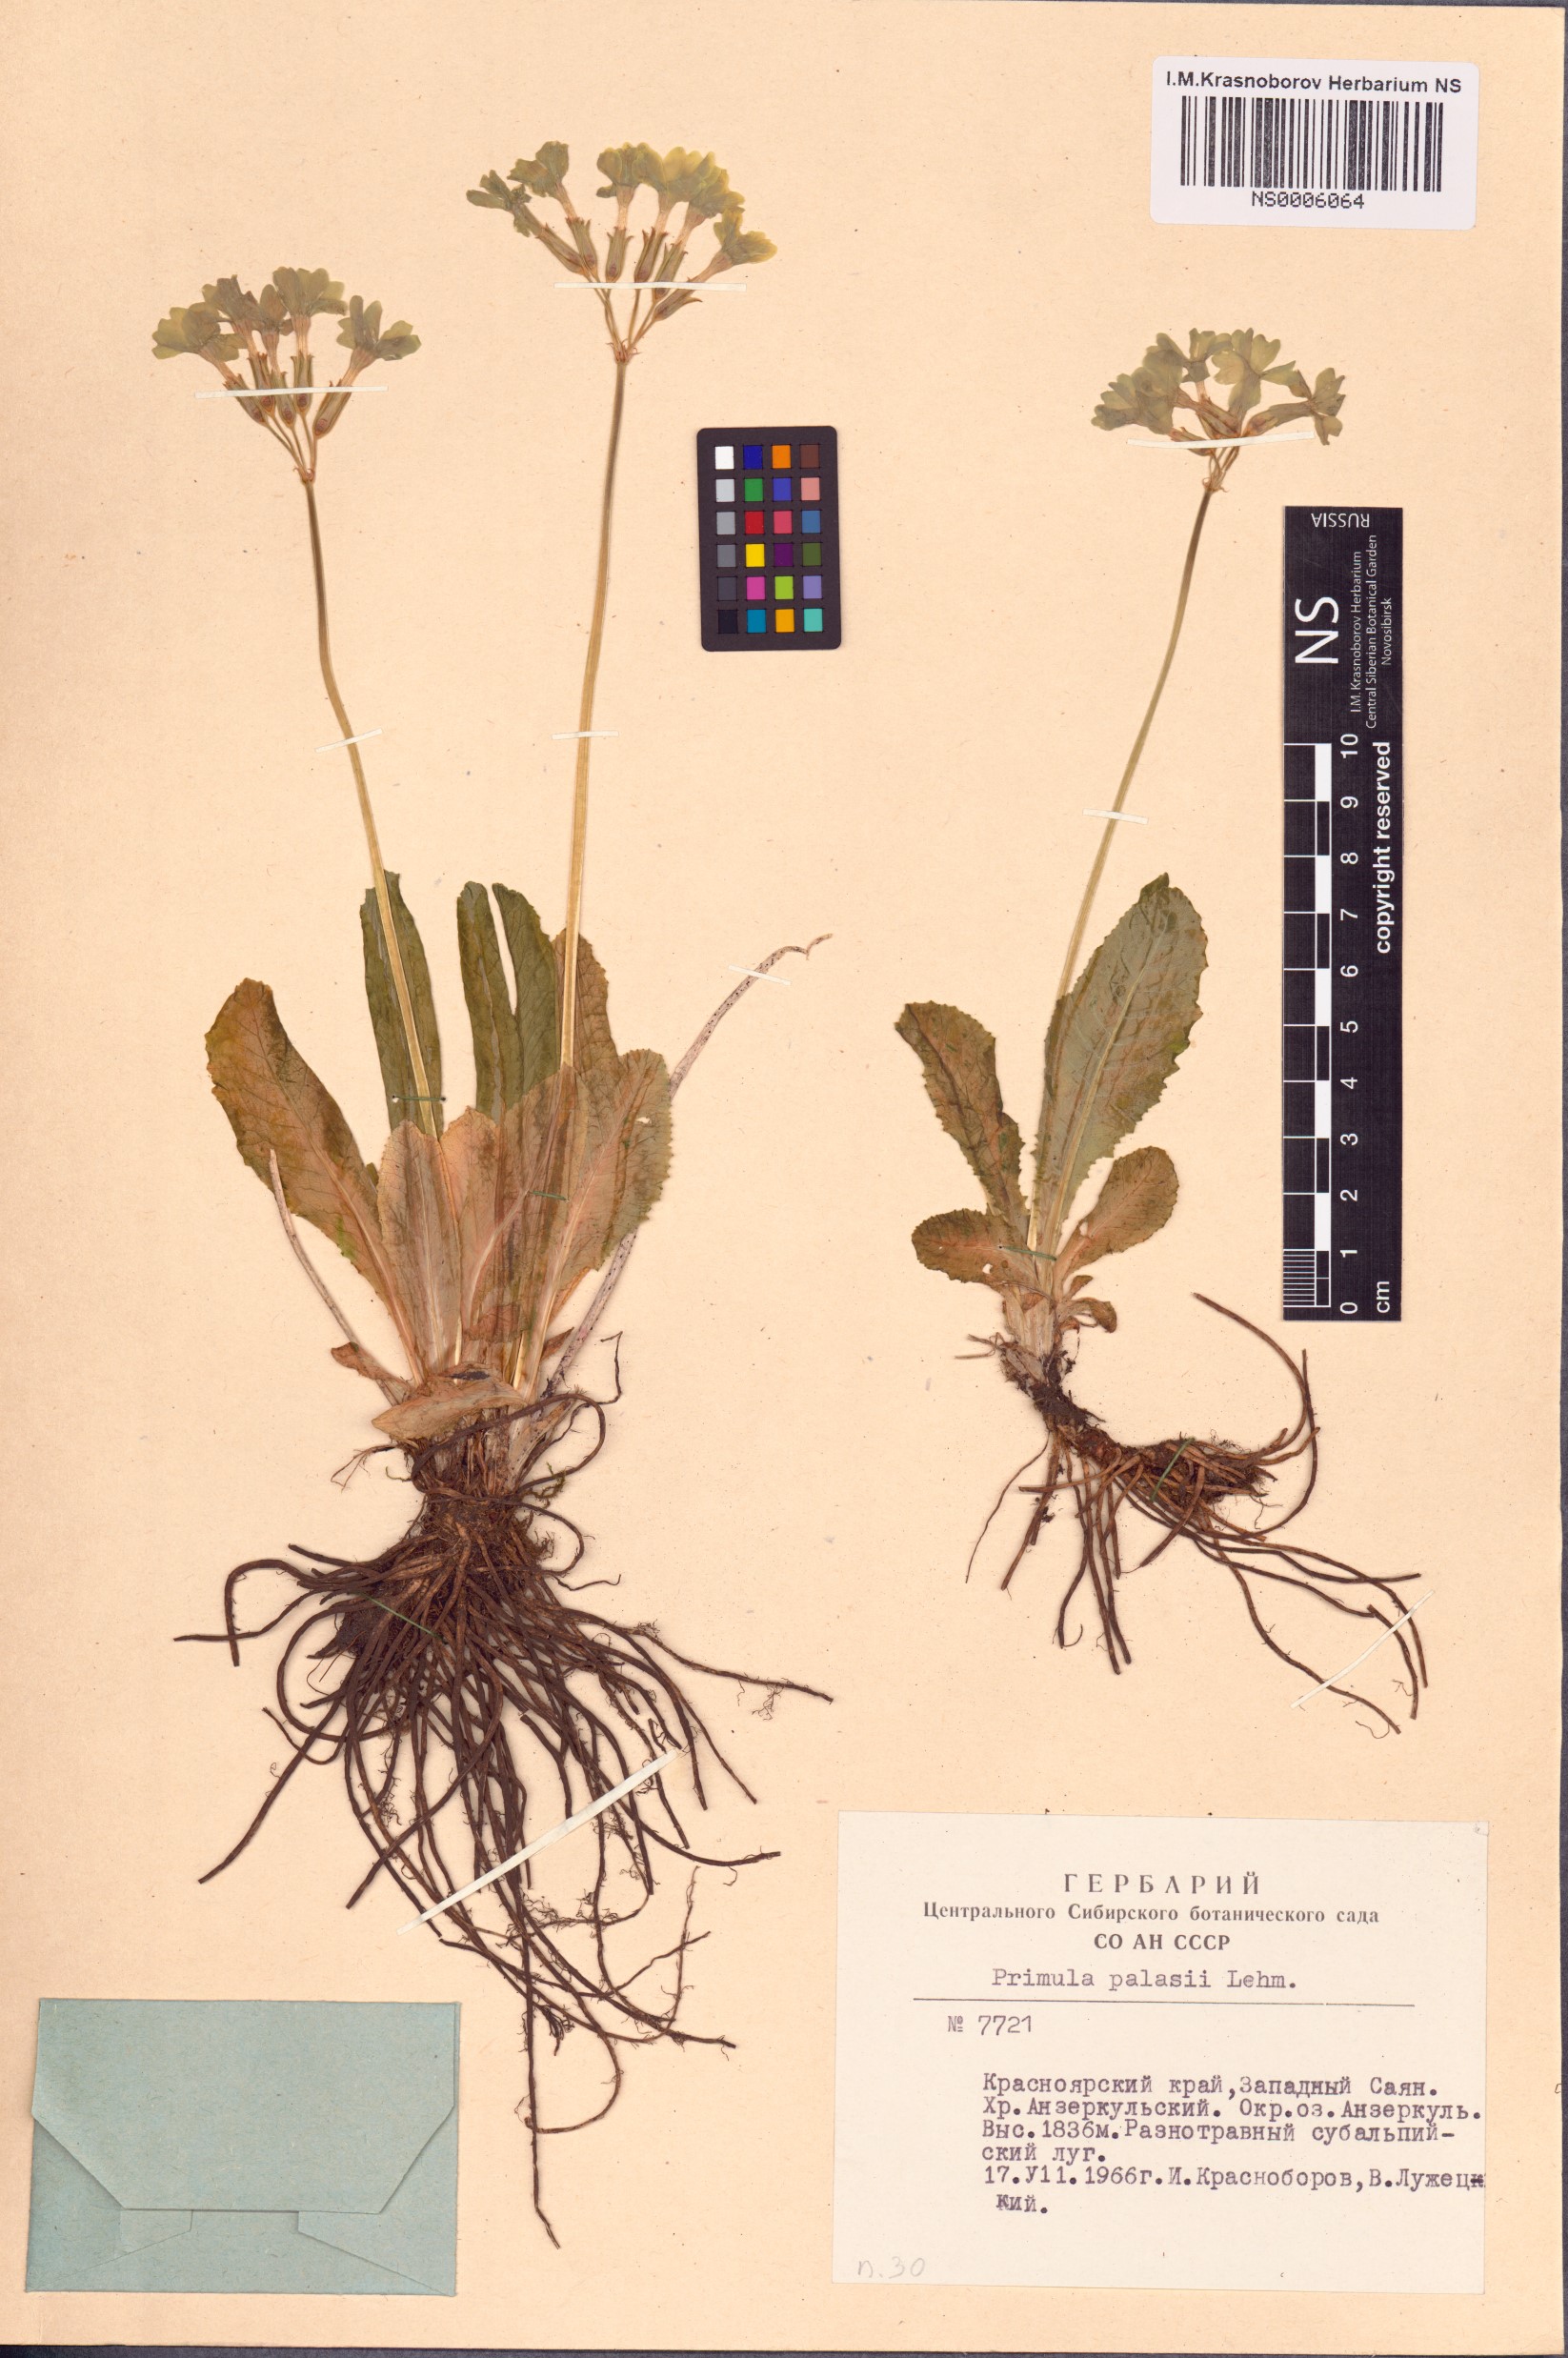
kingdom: Plantae
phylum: Tracheophyta
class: Magnoliopsida
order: Ericales
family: Primulaceae
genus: Primula
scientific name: Primula elatior
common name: Oxlip
